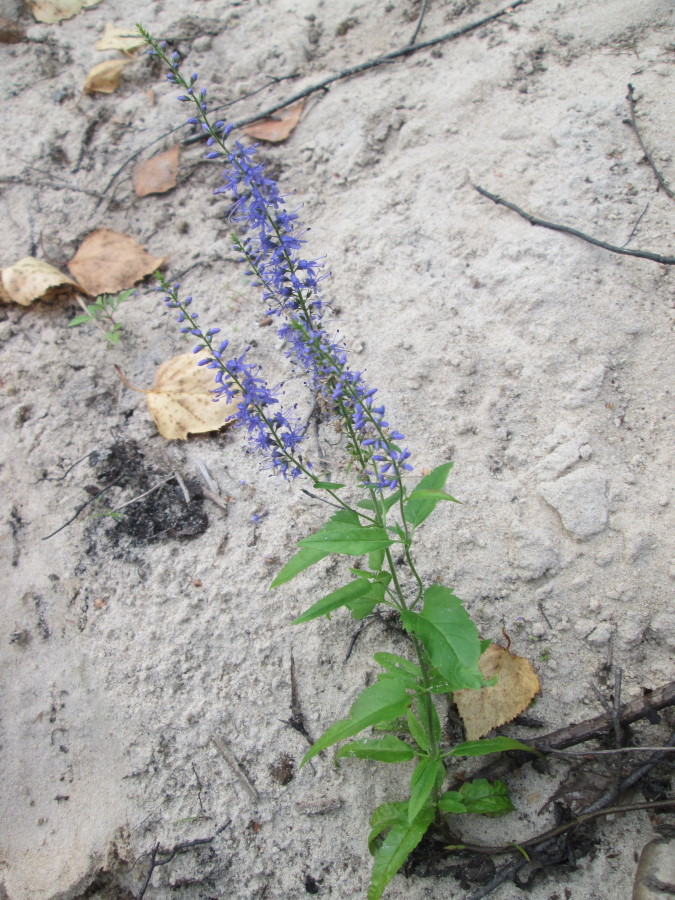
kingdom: Plantae
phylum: Tracheophyta
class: Magnoliopsida
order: Lamiales
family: Plantaginaceae
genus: Veronica
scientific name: Veronica longifolia
